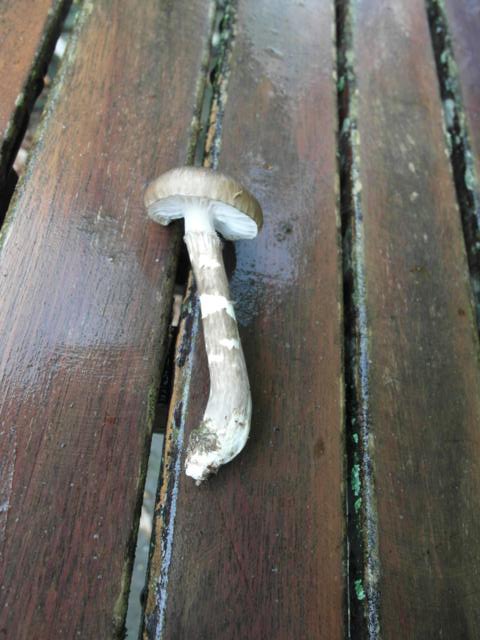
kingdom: Fungi
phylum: Basidiomycota
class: Agaricomycetes
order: Agaricales
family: Hygrophoraceae
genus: Hygrophorus
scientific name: Hygrophorus olivaceoalbus
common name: hvidbrun sneglehat
